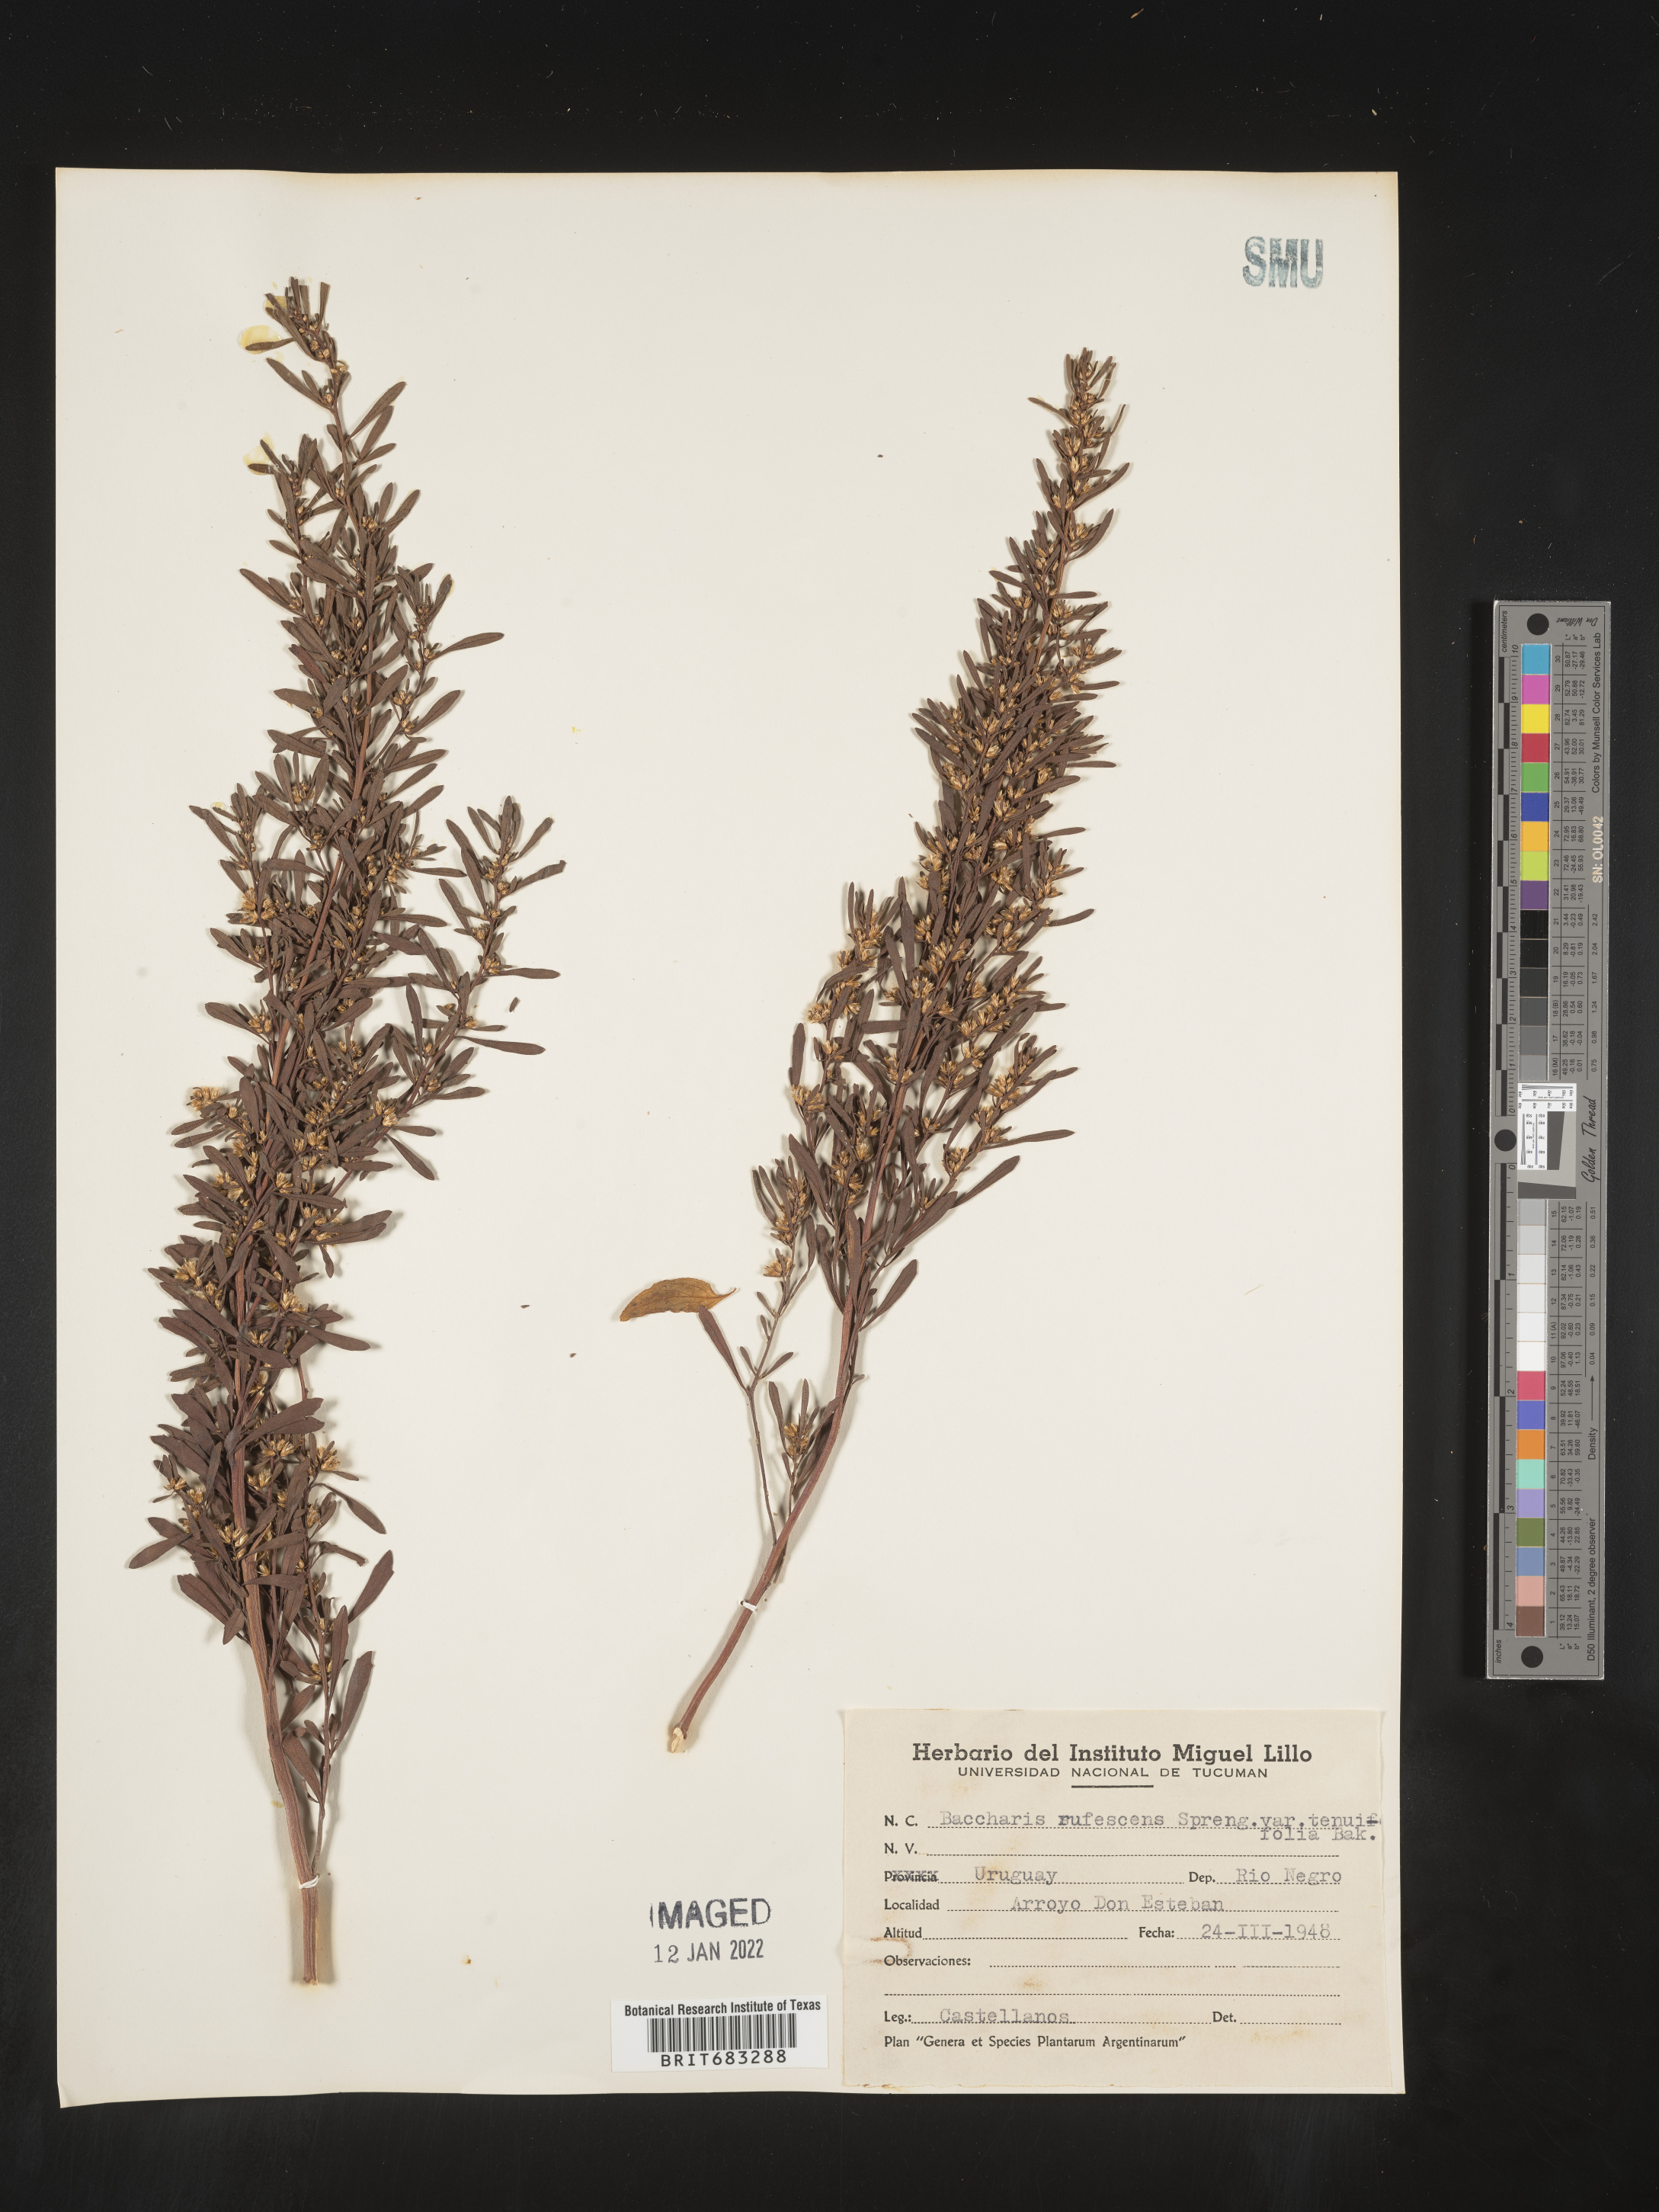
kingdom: Plantae
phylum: Tracheophyta
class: Magnoliopsida
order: Asterales
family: Asteraceae
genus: Baccharis
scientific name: Baccharis
